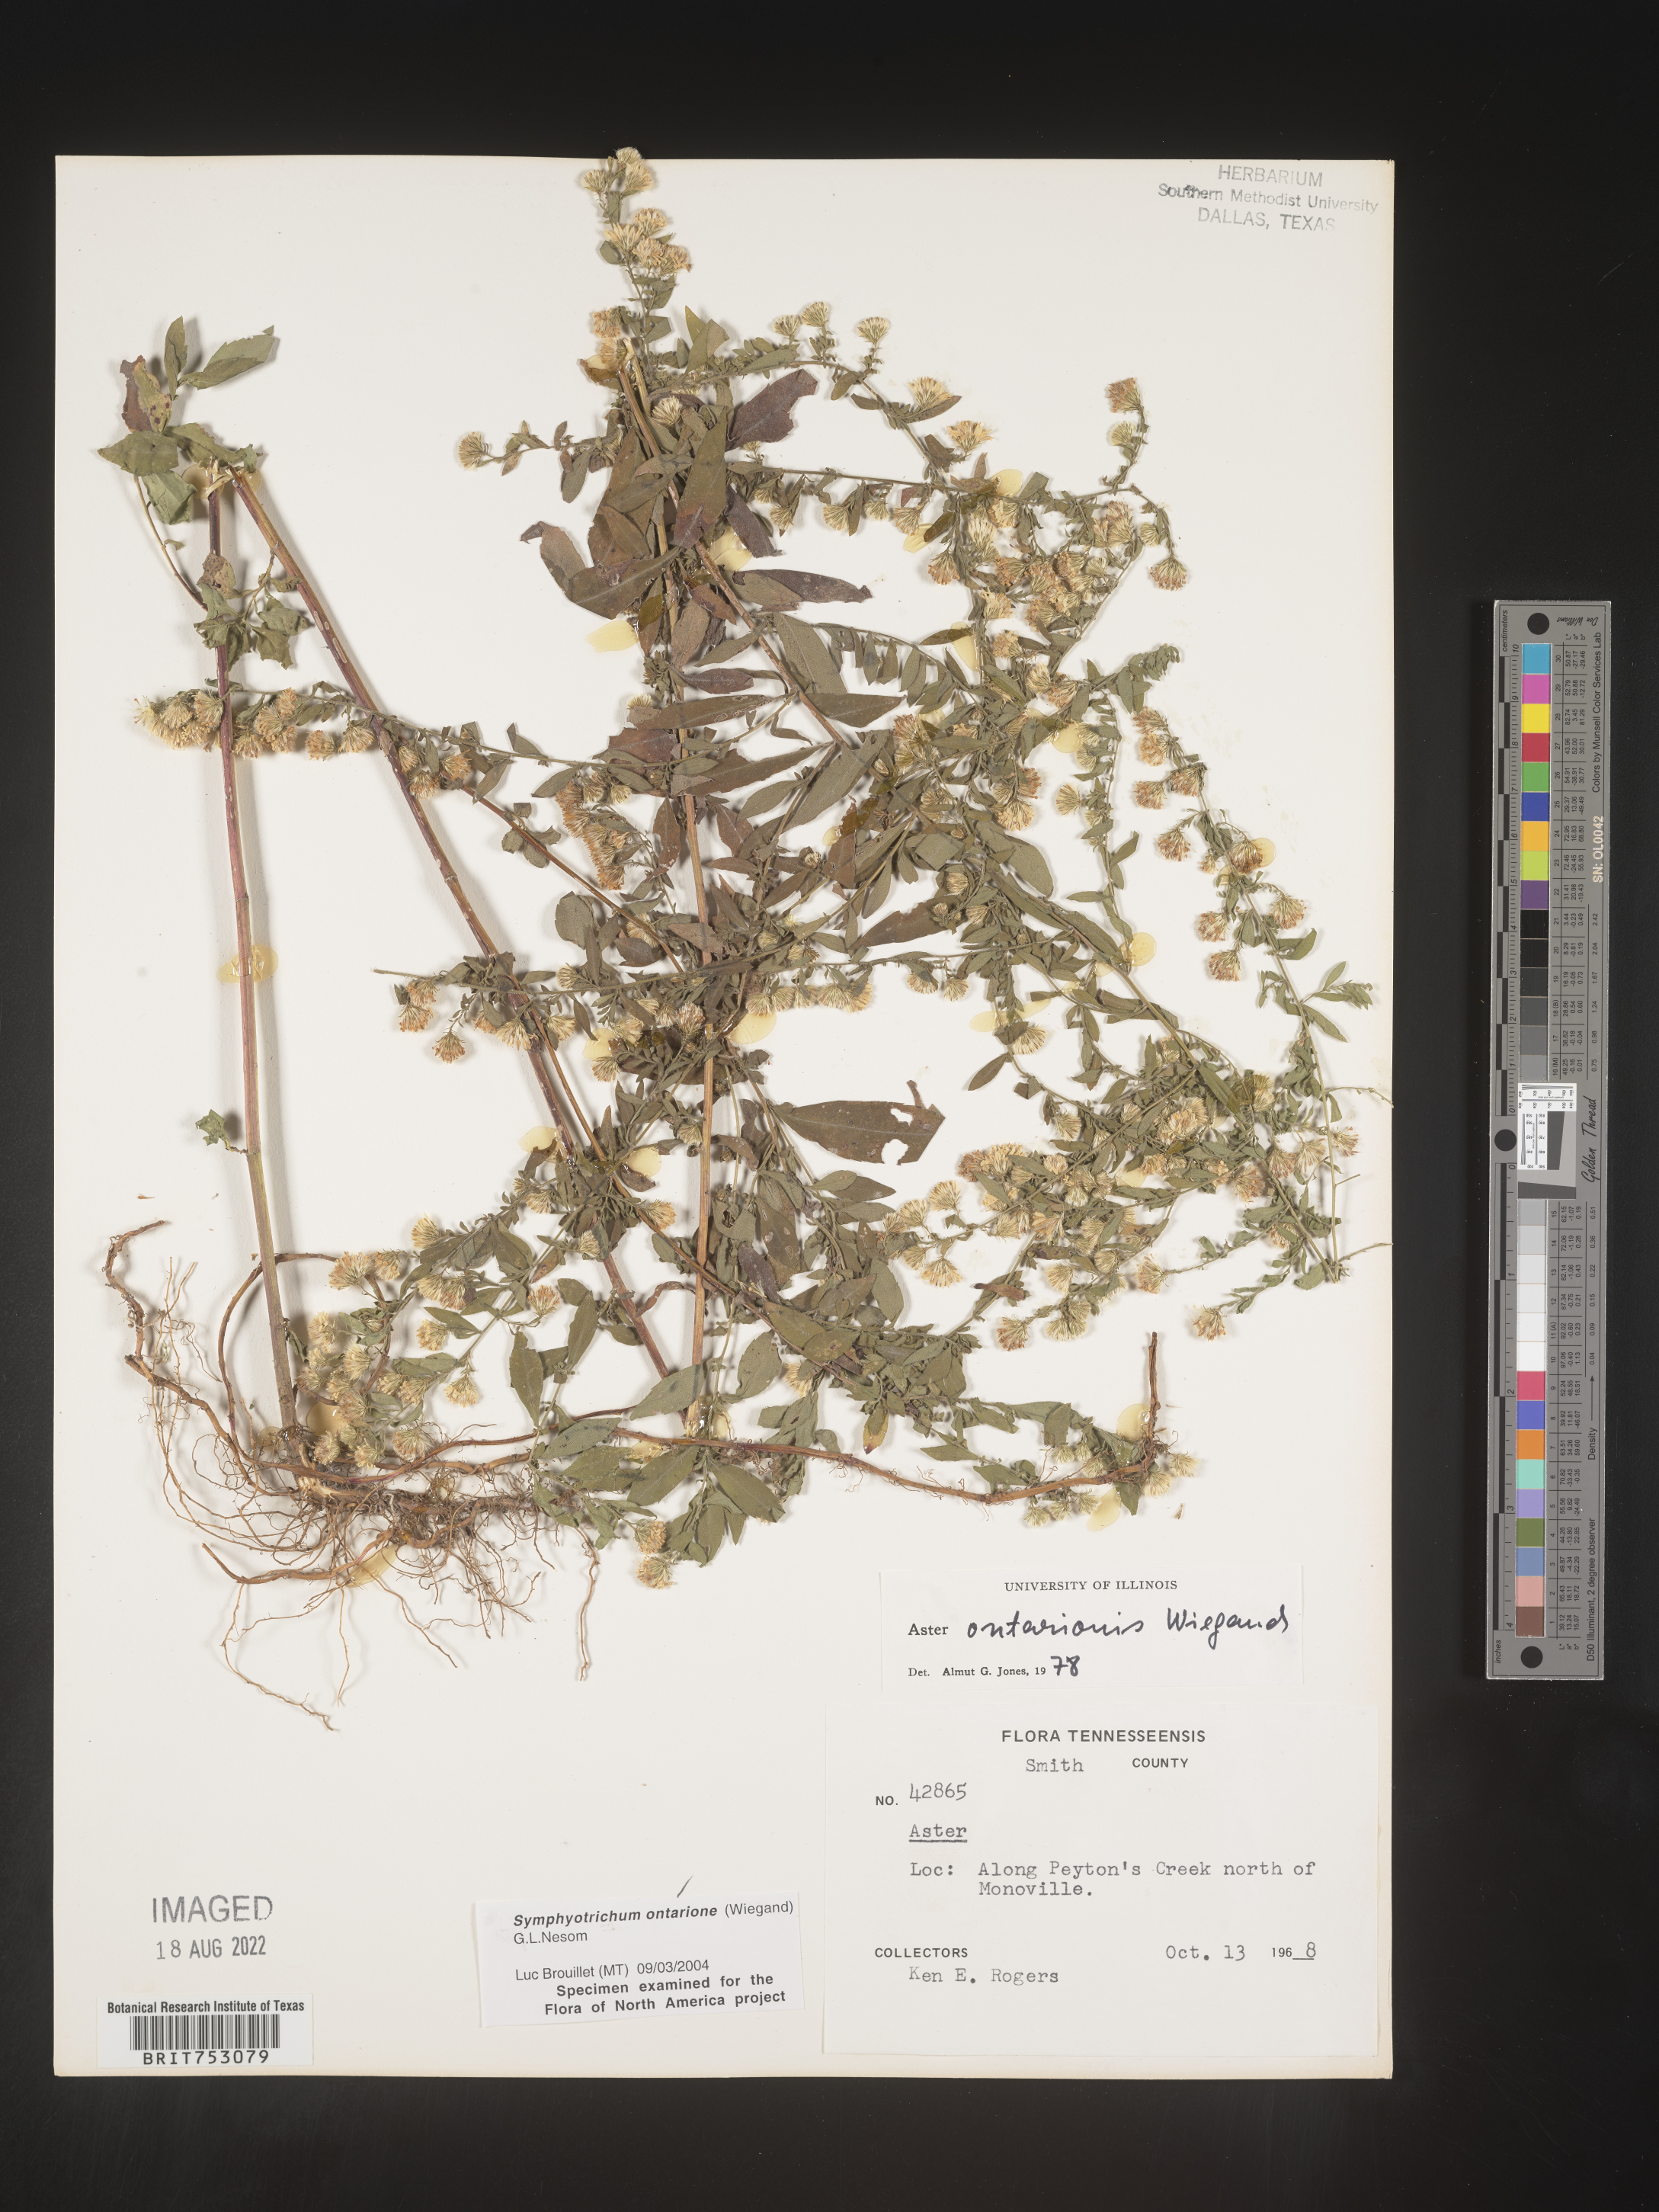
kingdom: Plantae
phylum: Tracheophyta
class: Magnoliopsida
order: Asterales
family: Asteraceae
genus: Symphyotrichum
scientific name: Symphyotrichum ontarionis
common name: Bottomland aster
